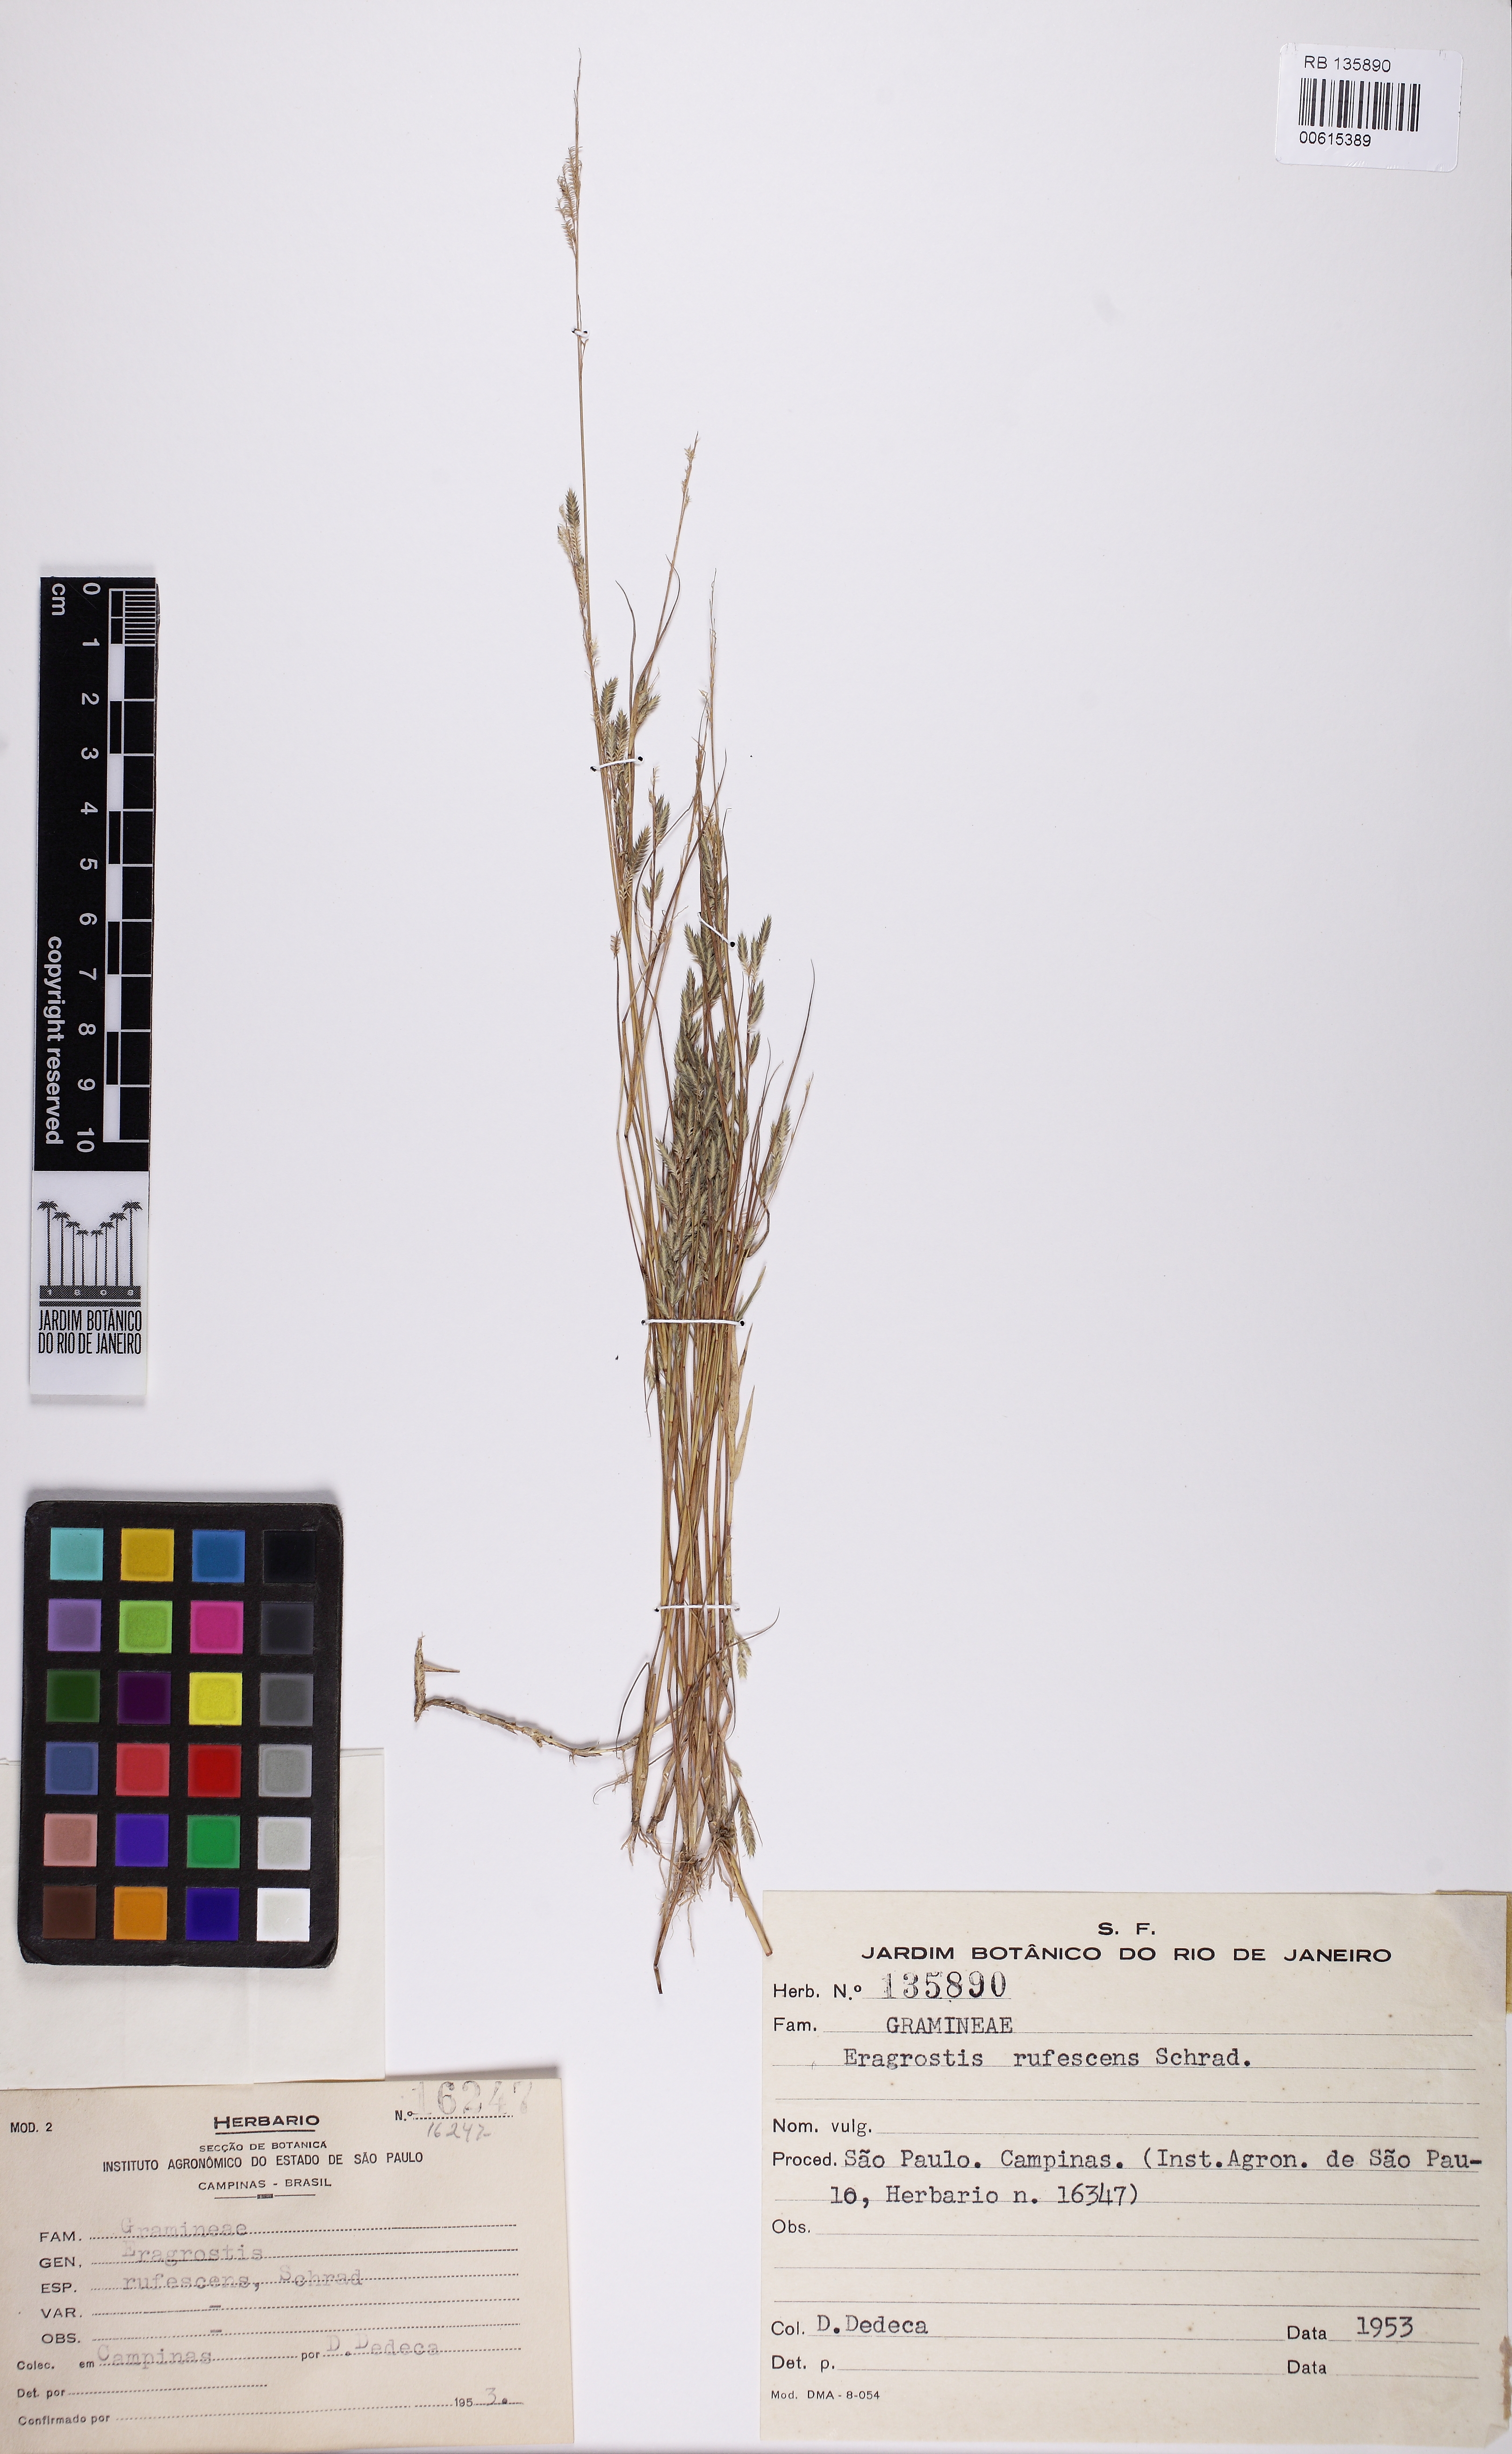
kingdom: Plantae
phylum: Tracheophyta
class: Liliopsida
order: Poales
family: Poaceae
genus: Eragrostis
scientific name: Eragrostis rufescens
